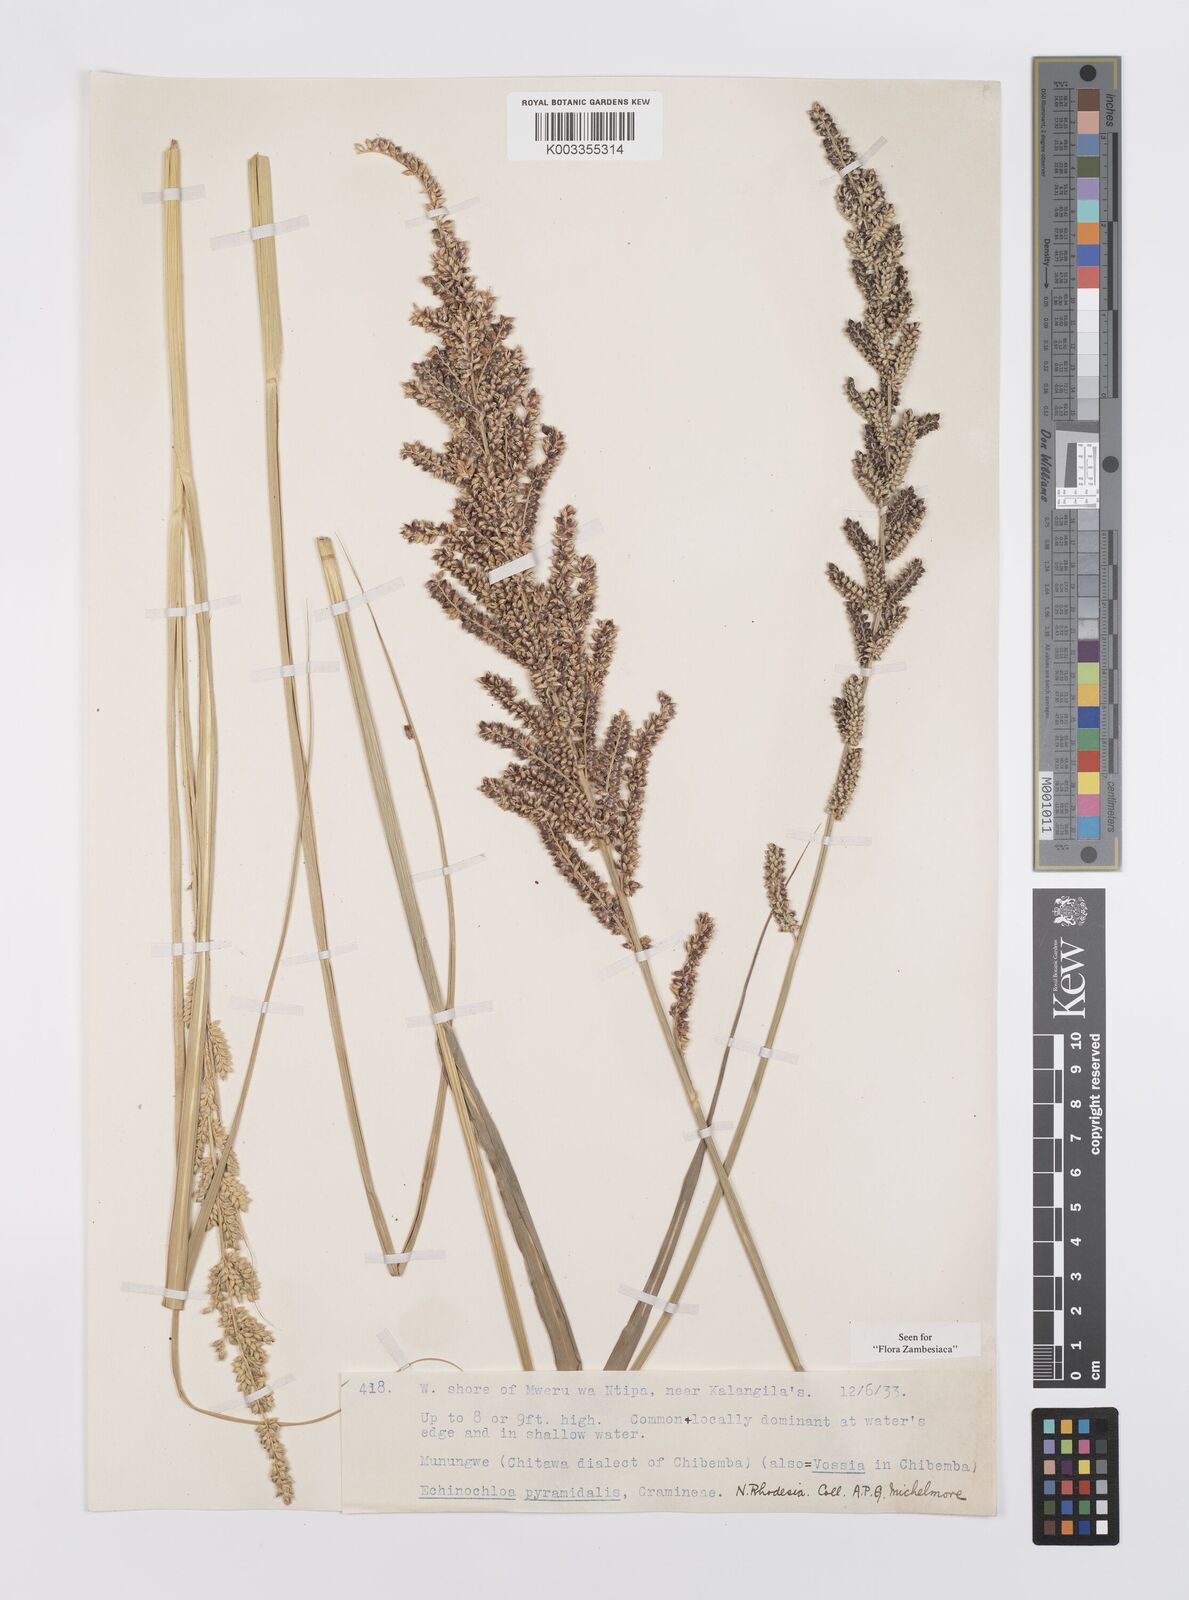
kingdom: Plantae
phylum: Tracheophyta
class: Liliopsida
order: Poales
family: Poaceae
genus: Echinochloa
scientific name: Echinochloa pyramidalis
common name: Antelope grass
